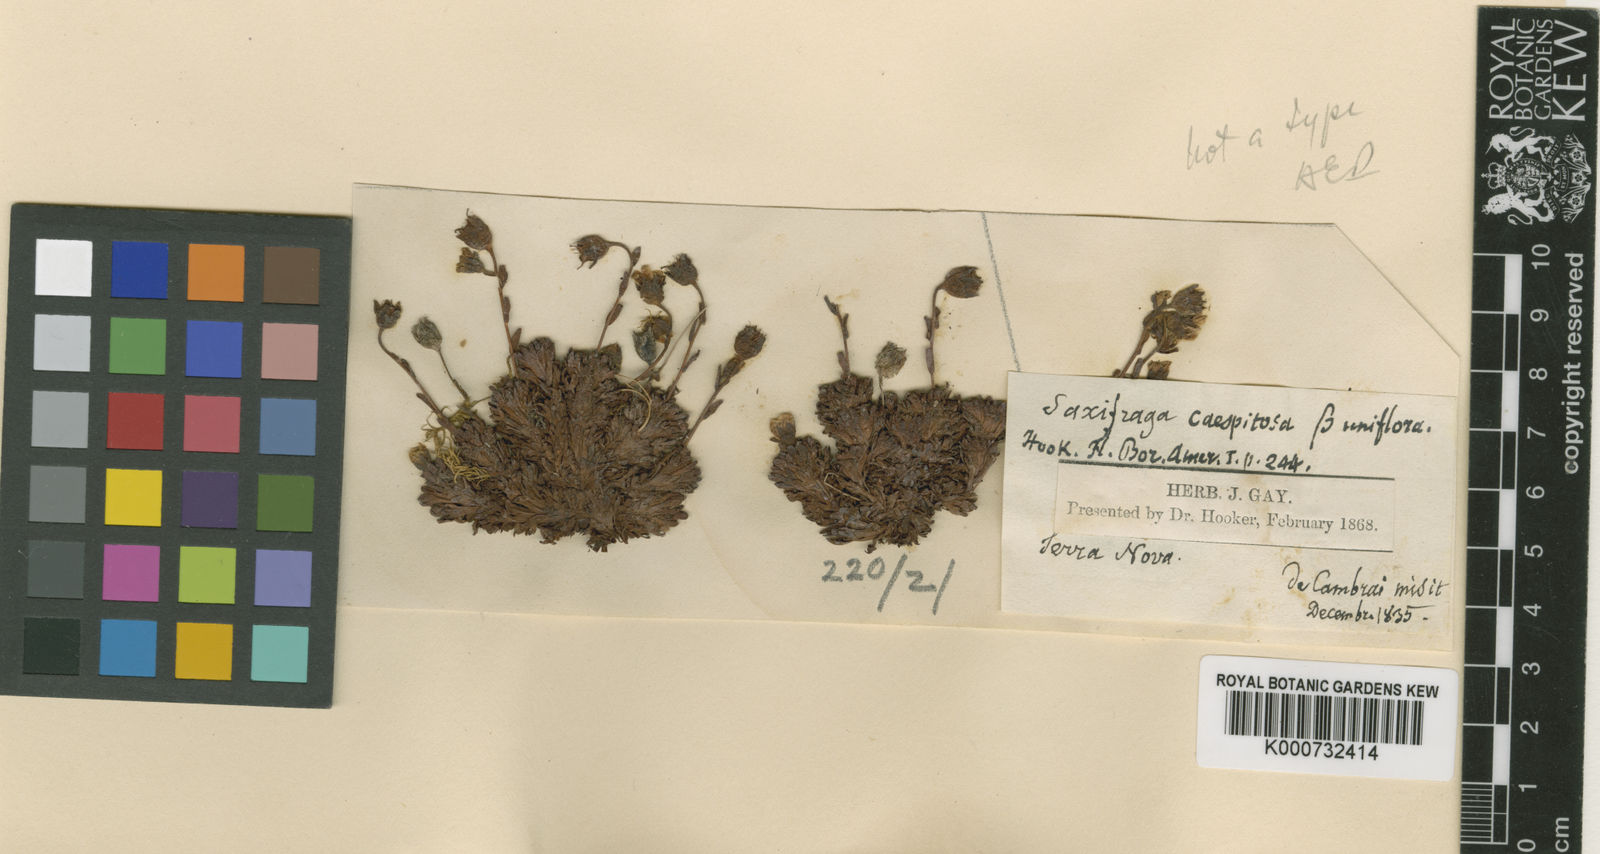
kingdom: Plantae
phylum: Tracheophyta
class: Magnoliopsida
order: Saxifragales
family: Saxifragaceae
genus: Saxifraga
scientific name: Saxifraga cespitosa
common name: Tufted saxifrage
